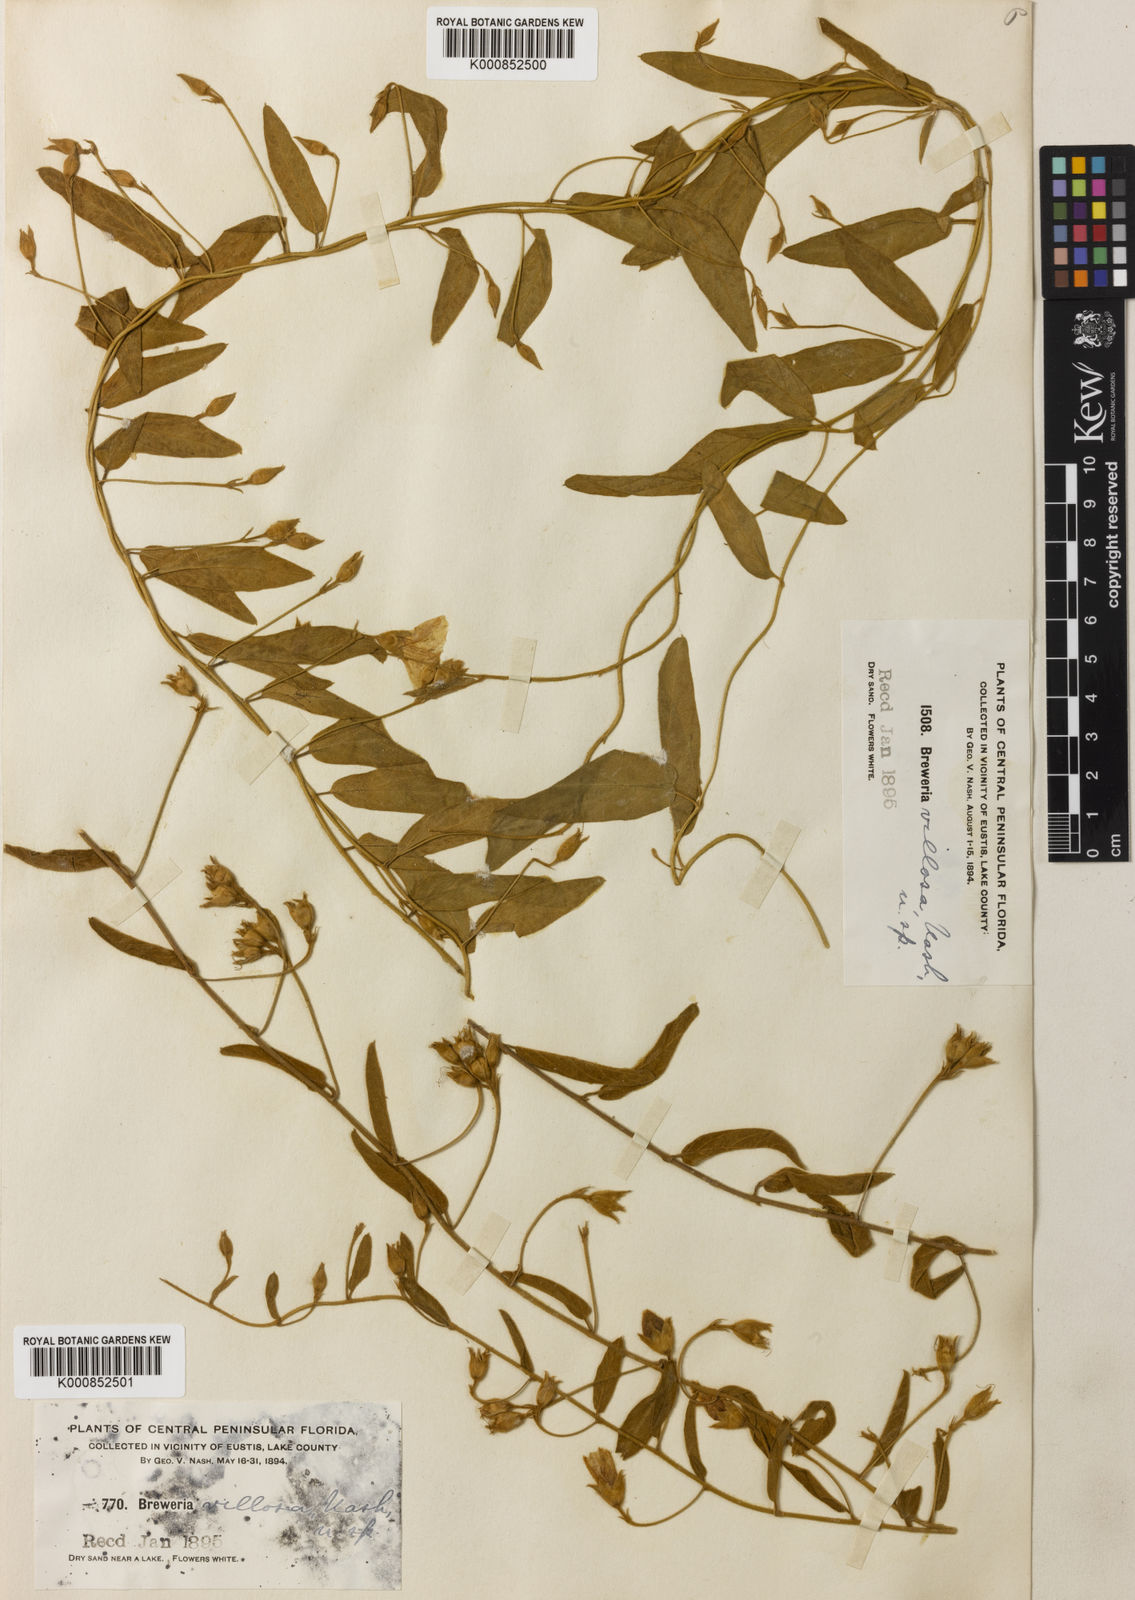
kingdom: Plantae
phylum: Tracheophyta
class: Magnoliopsida
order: Solanales
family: Convolvulaceae
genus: Stylisma
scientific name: Stylisma villosa
